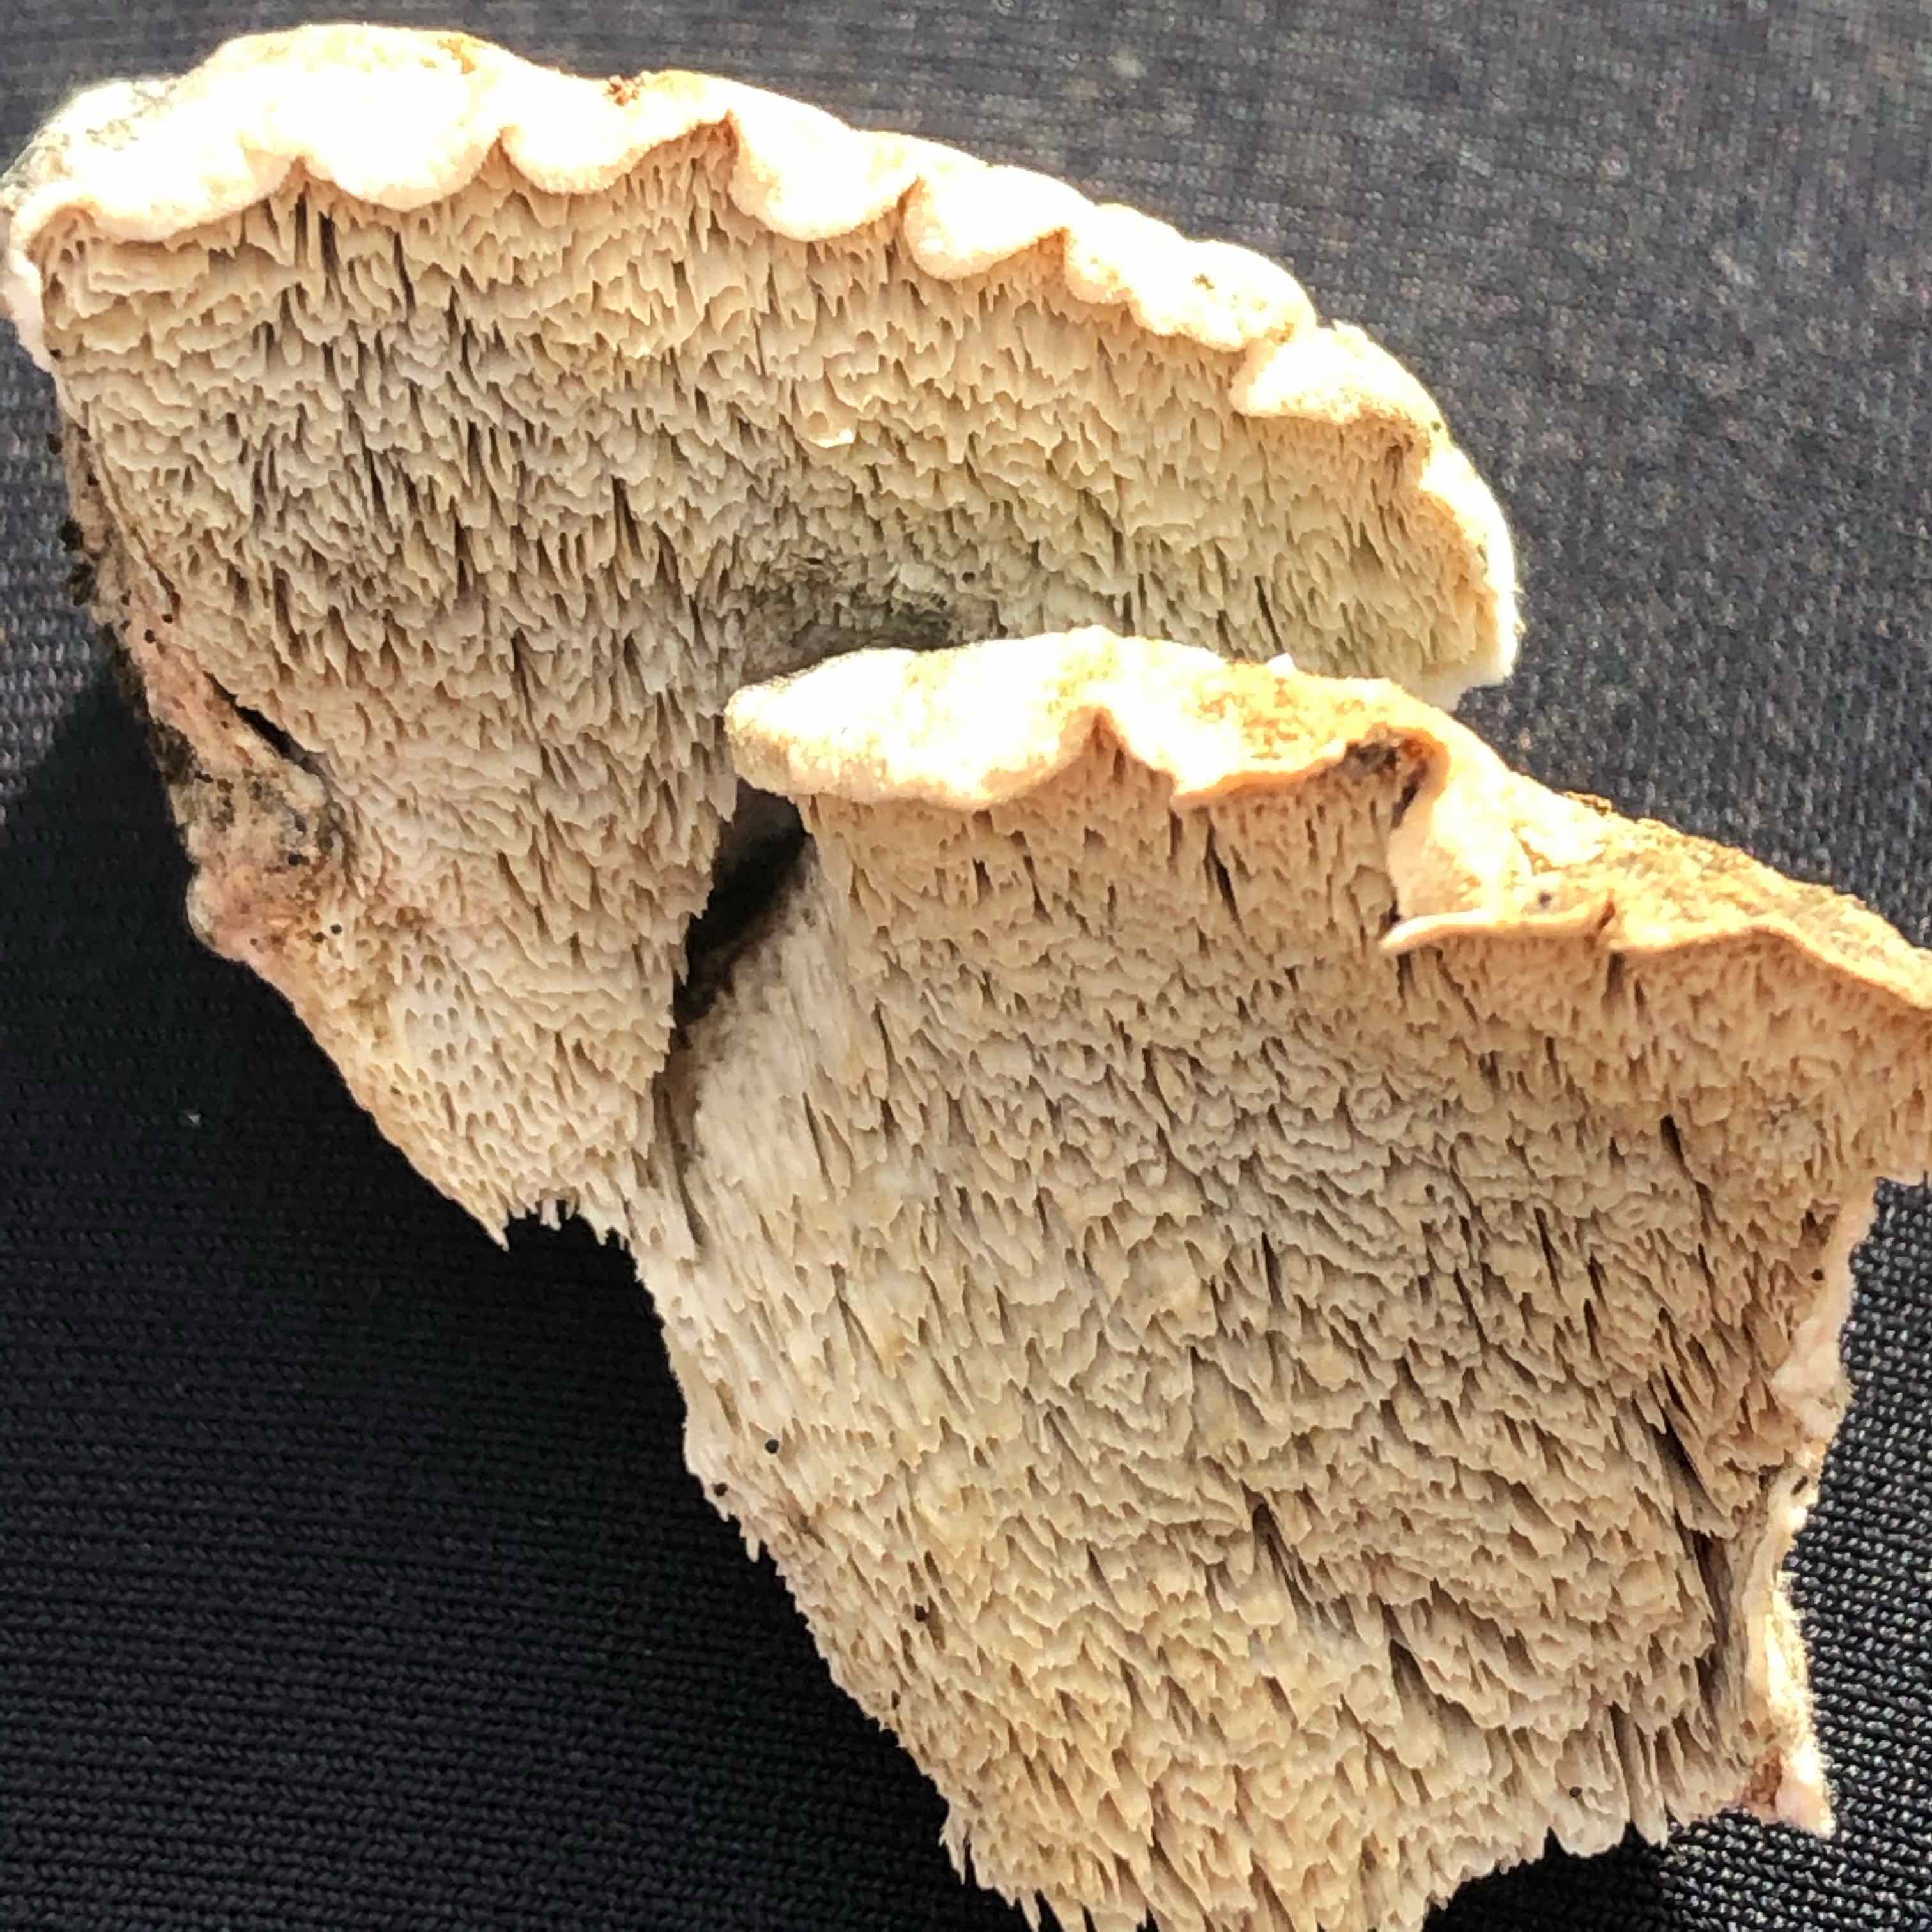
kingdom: Fungi
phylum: Basidiomycota
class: Agaricomycetes
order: Polyporales
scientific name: Polyporales
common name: poresvampordenen
